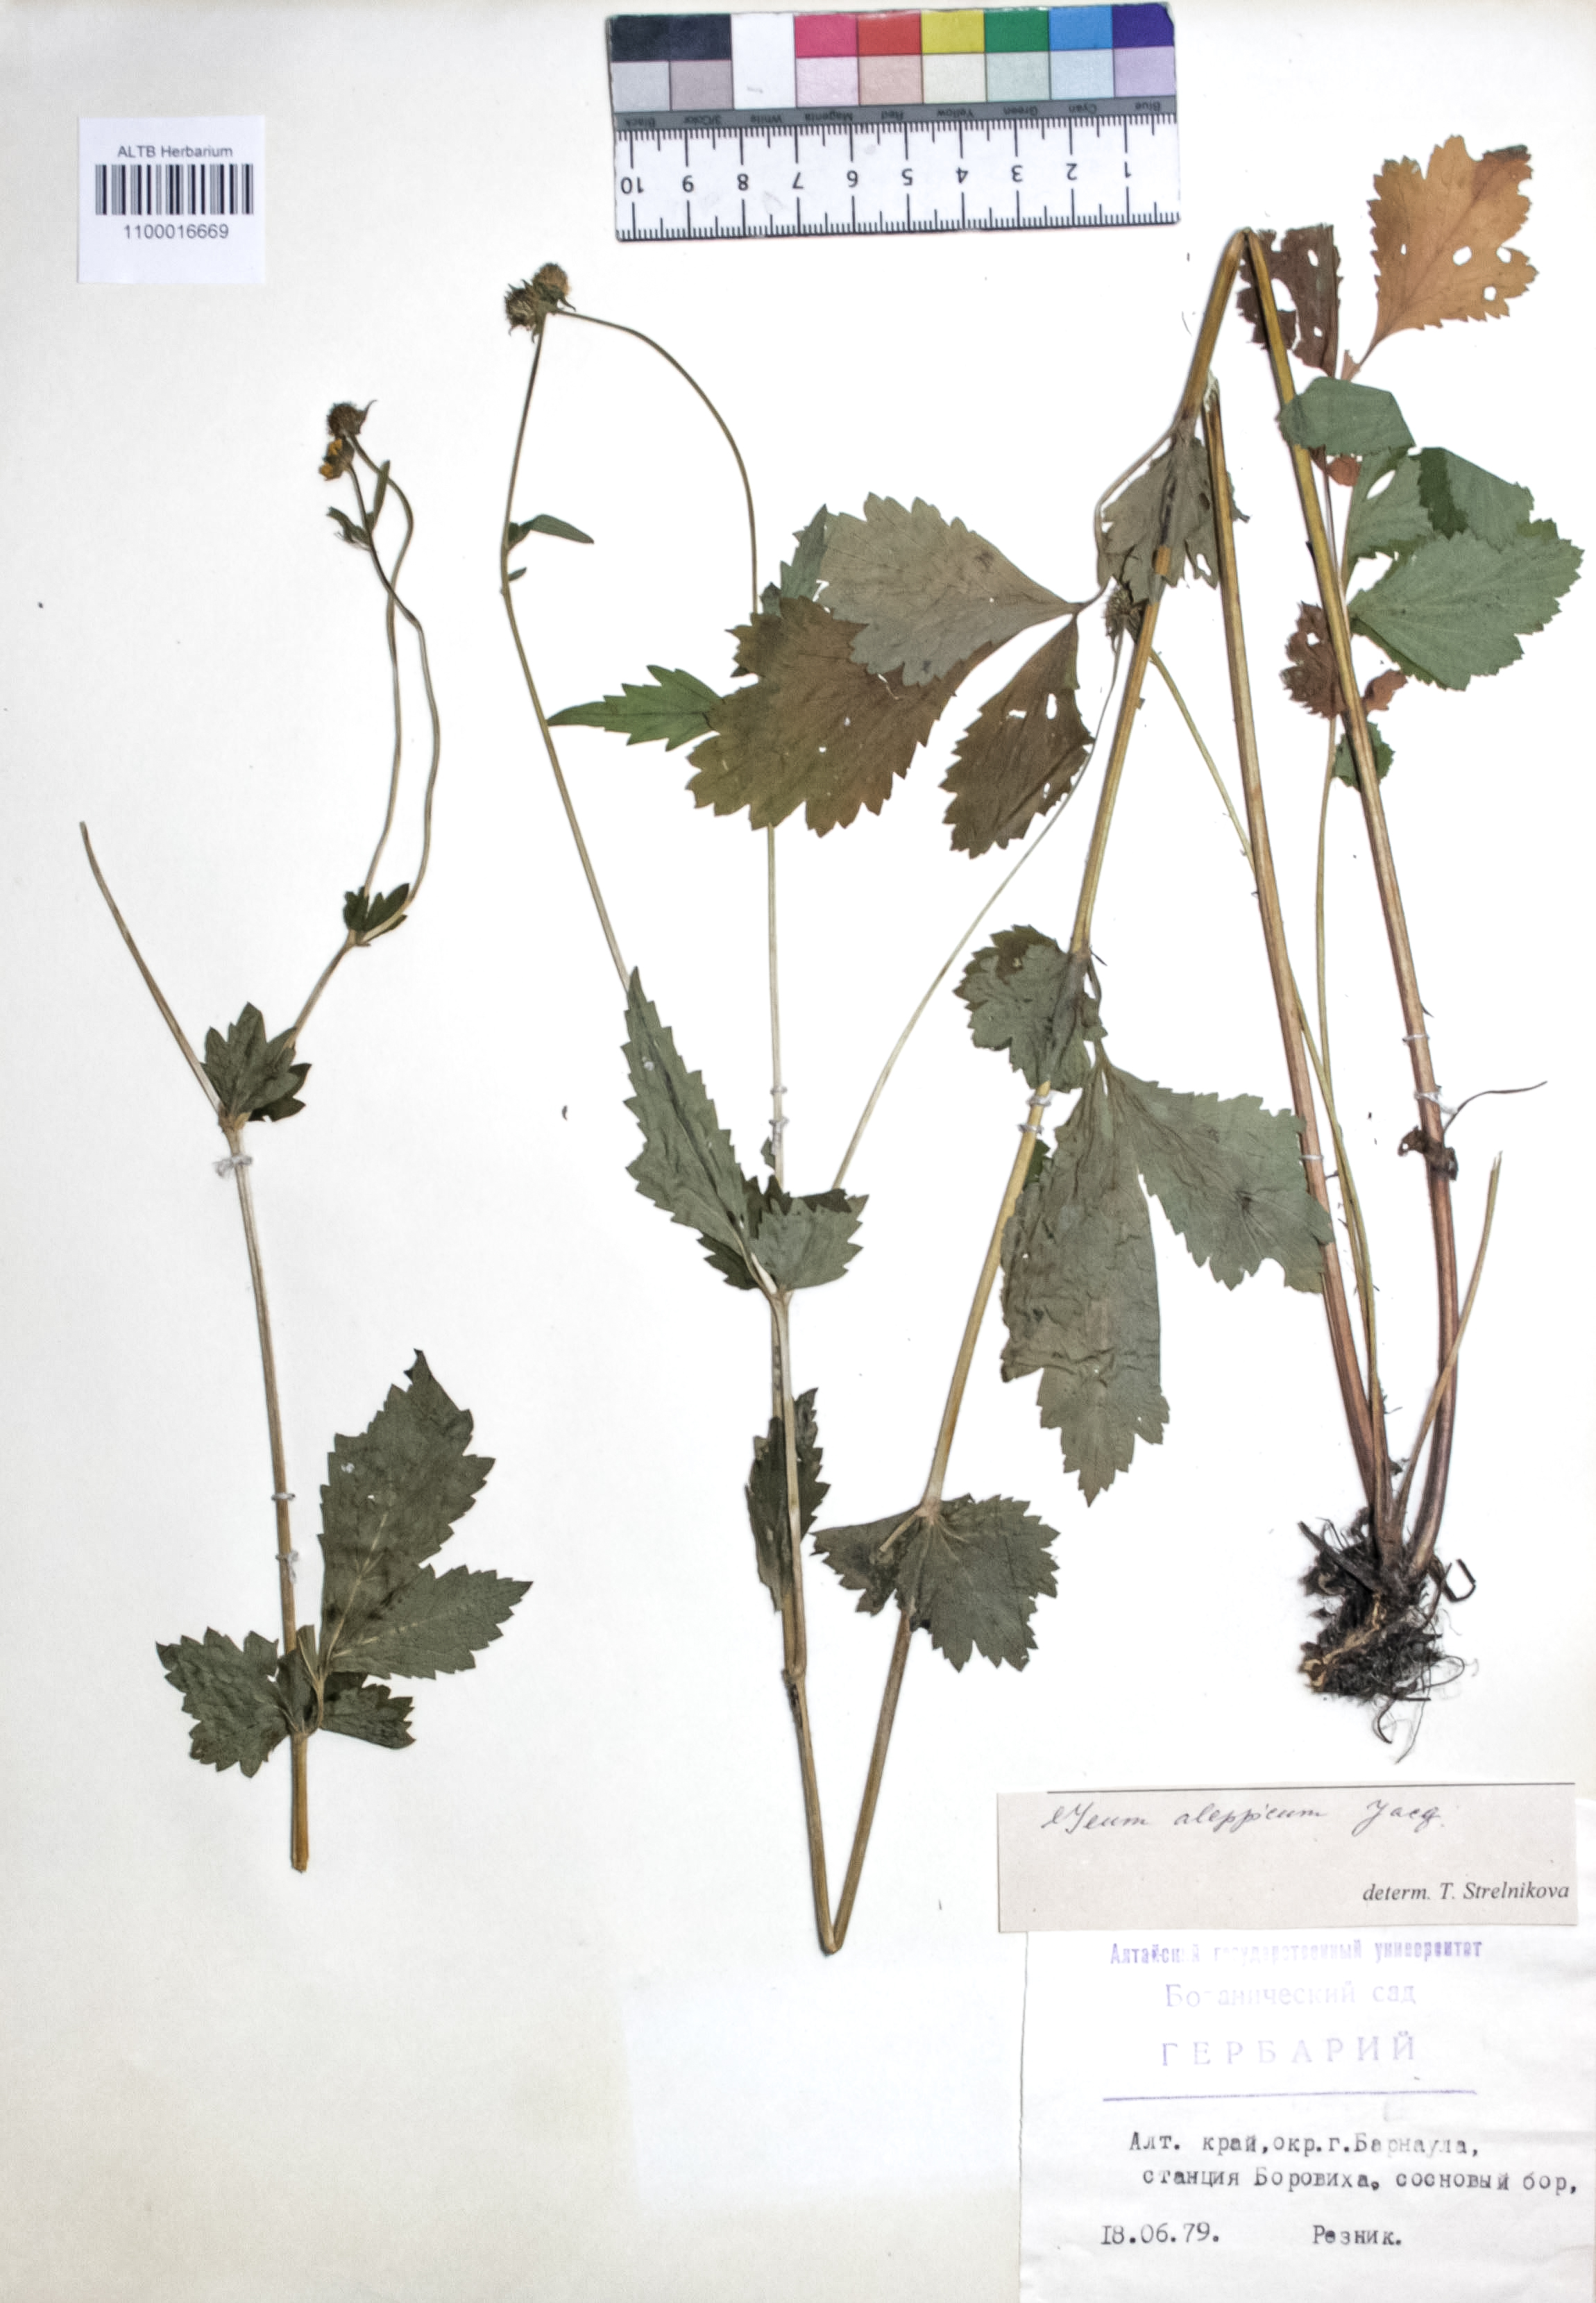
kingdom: Plantae
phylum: Tracheophyta
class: Magnoliopsida
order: Rosales
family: Rosaceae
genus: Geum
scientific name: Geum aleppicum
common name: Yellow avens
